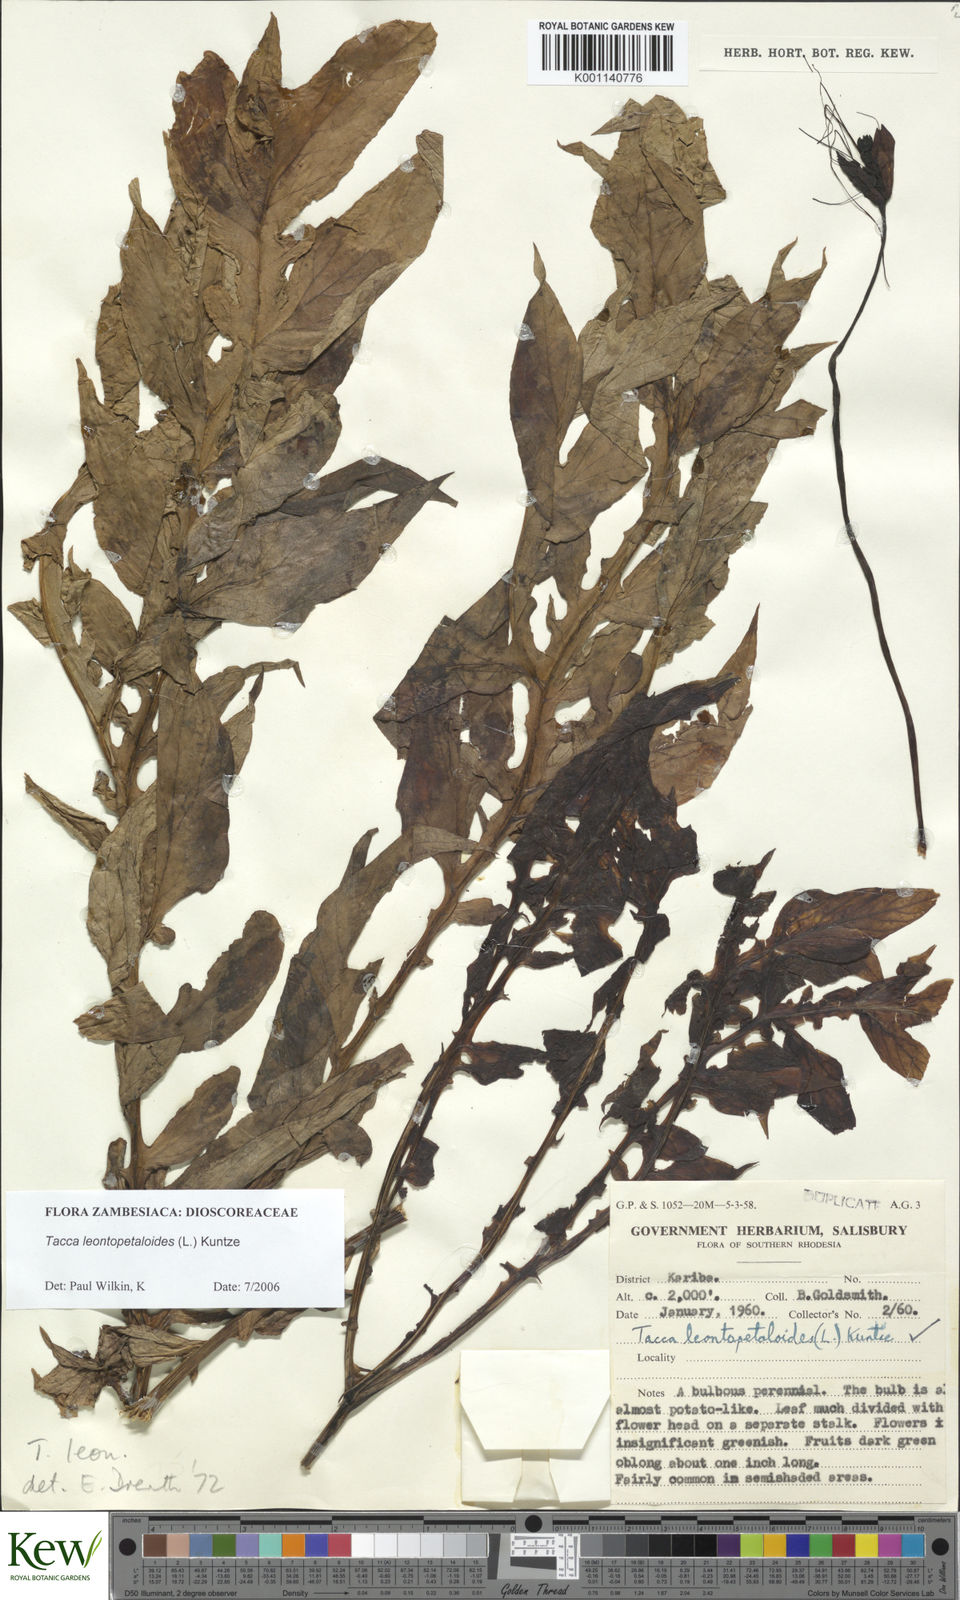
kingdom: Plantae
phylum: Tracheophyta
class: Liliopsida
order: Dioscoreales
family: Dioscoreaceae
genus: Tacca
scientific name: Tacca leontopetaloides
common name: Arrowroot
